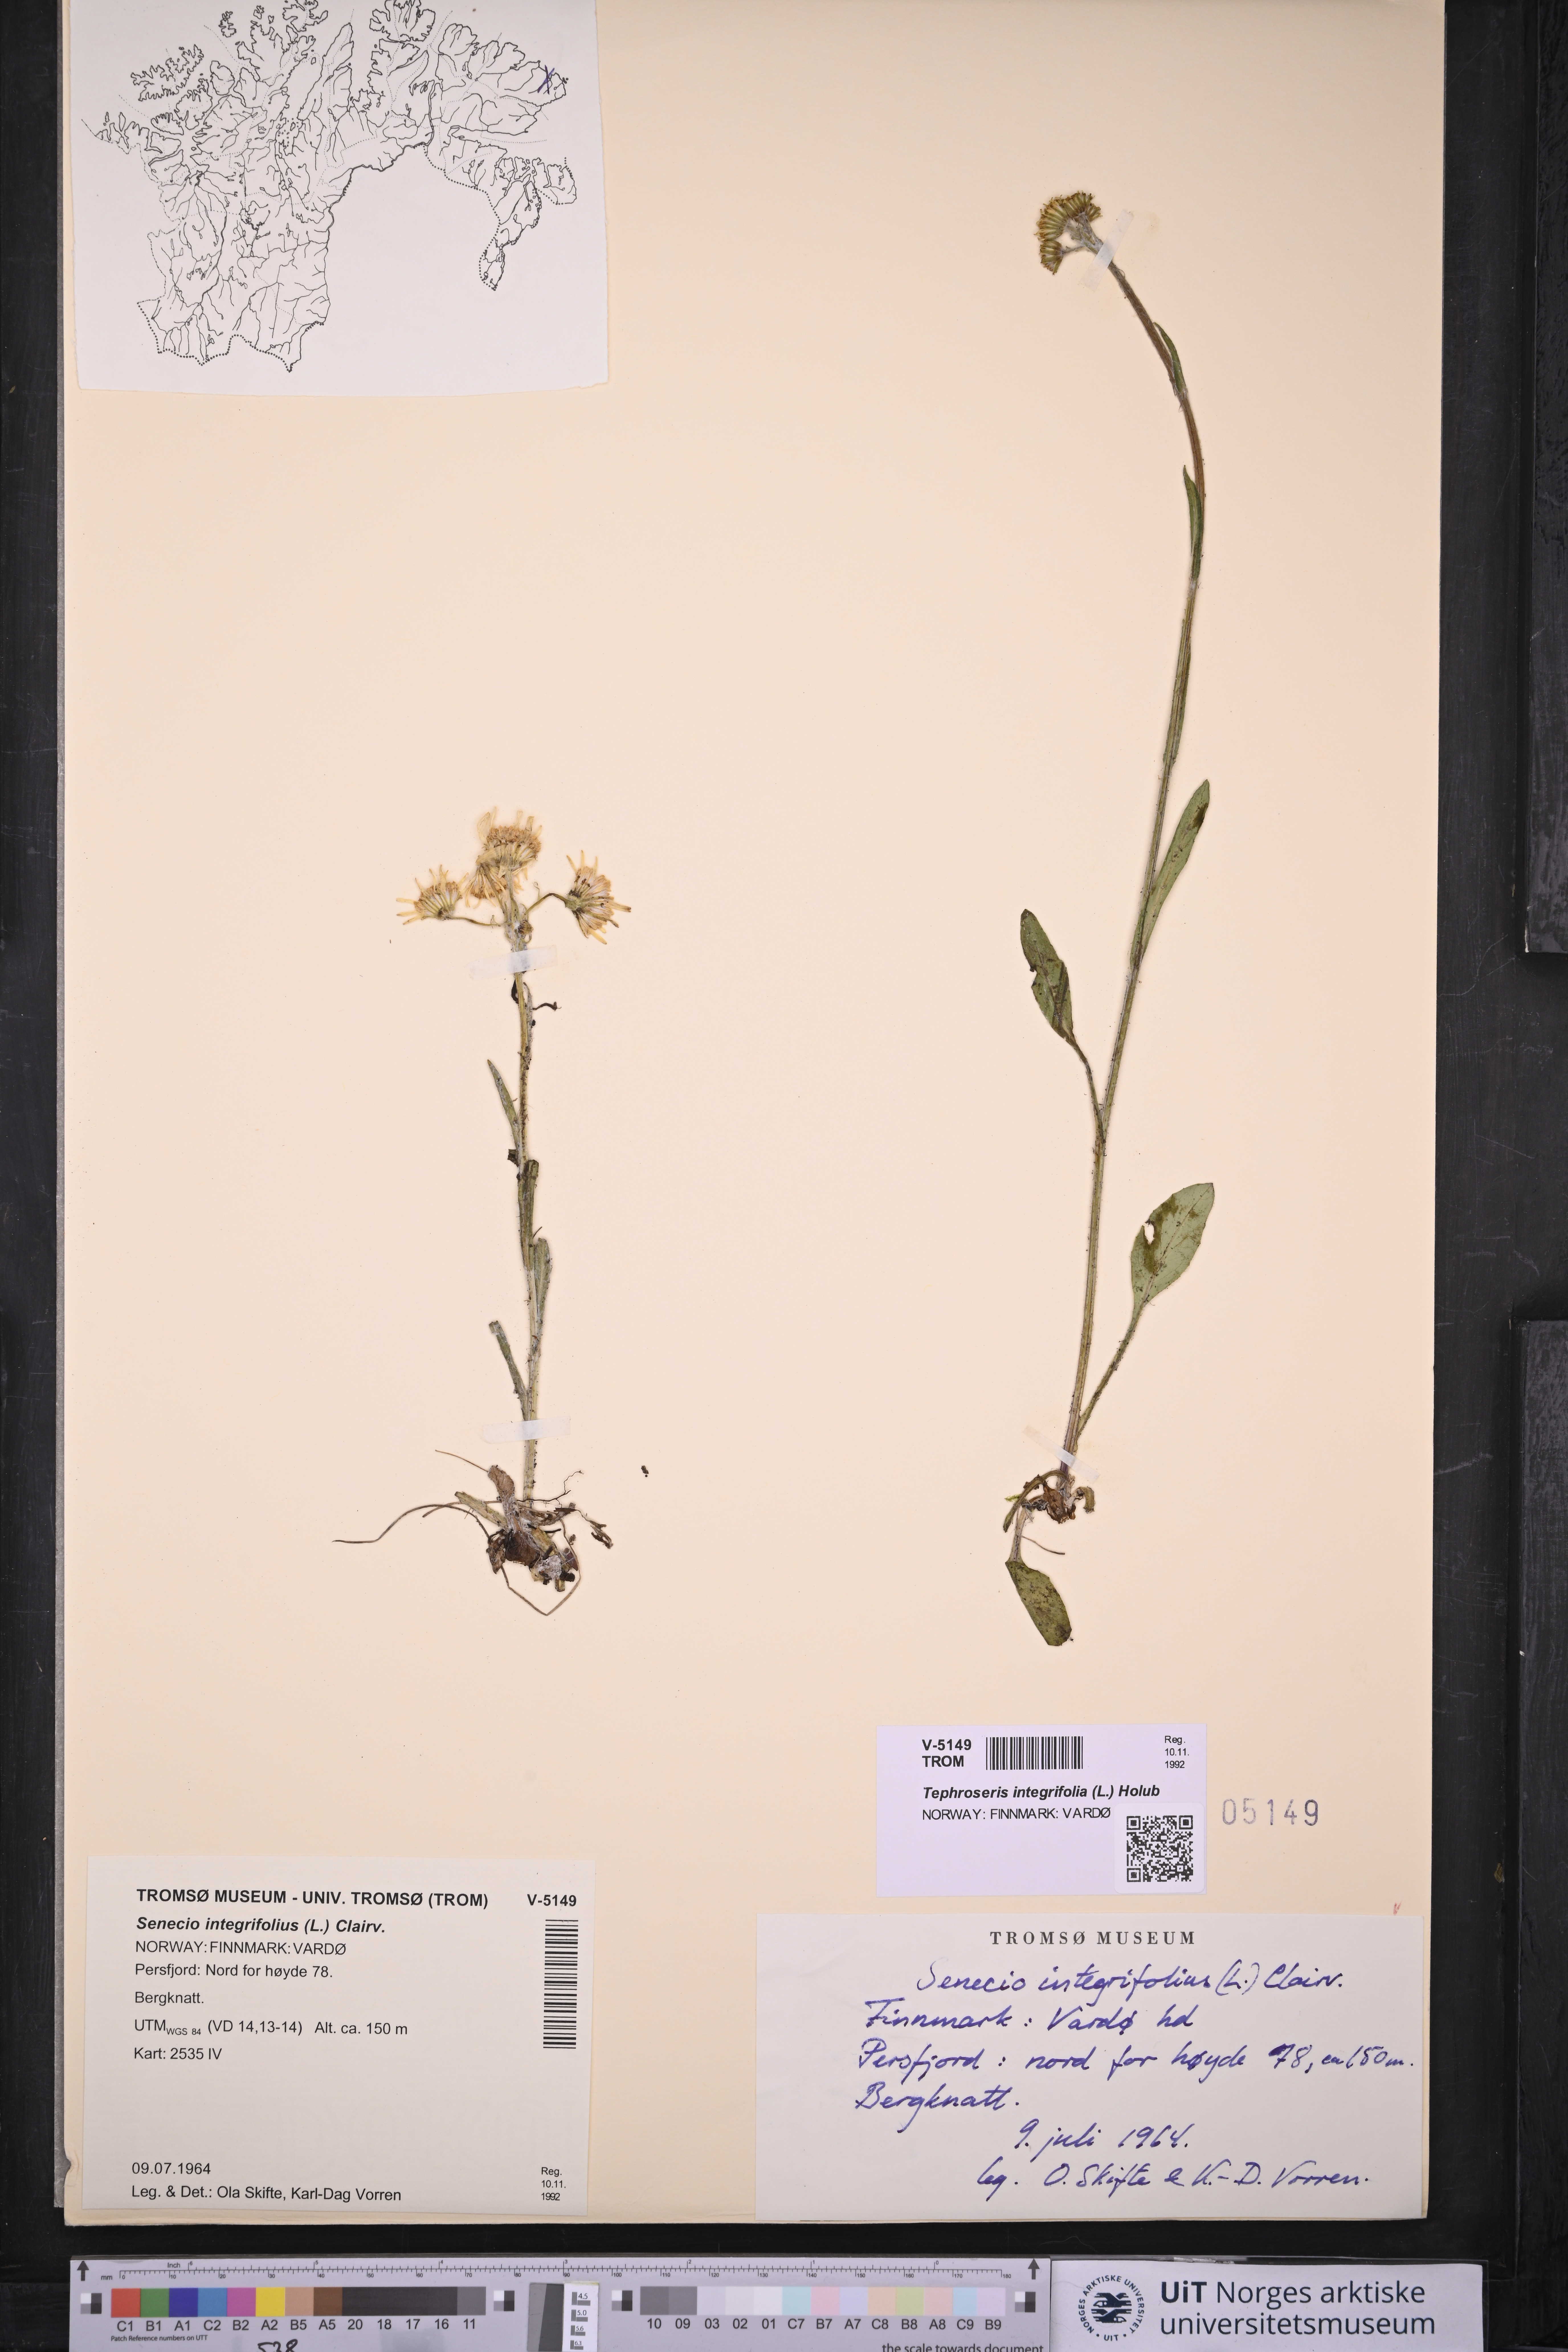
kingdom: Plantae
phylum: Tracheophyta
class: Magnoliopsida
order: Asterales
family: Asteraceae
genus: Tephroseris
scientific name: Tephroseris integrifolia
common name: Field fleawort
